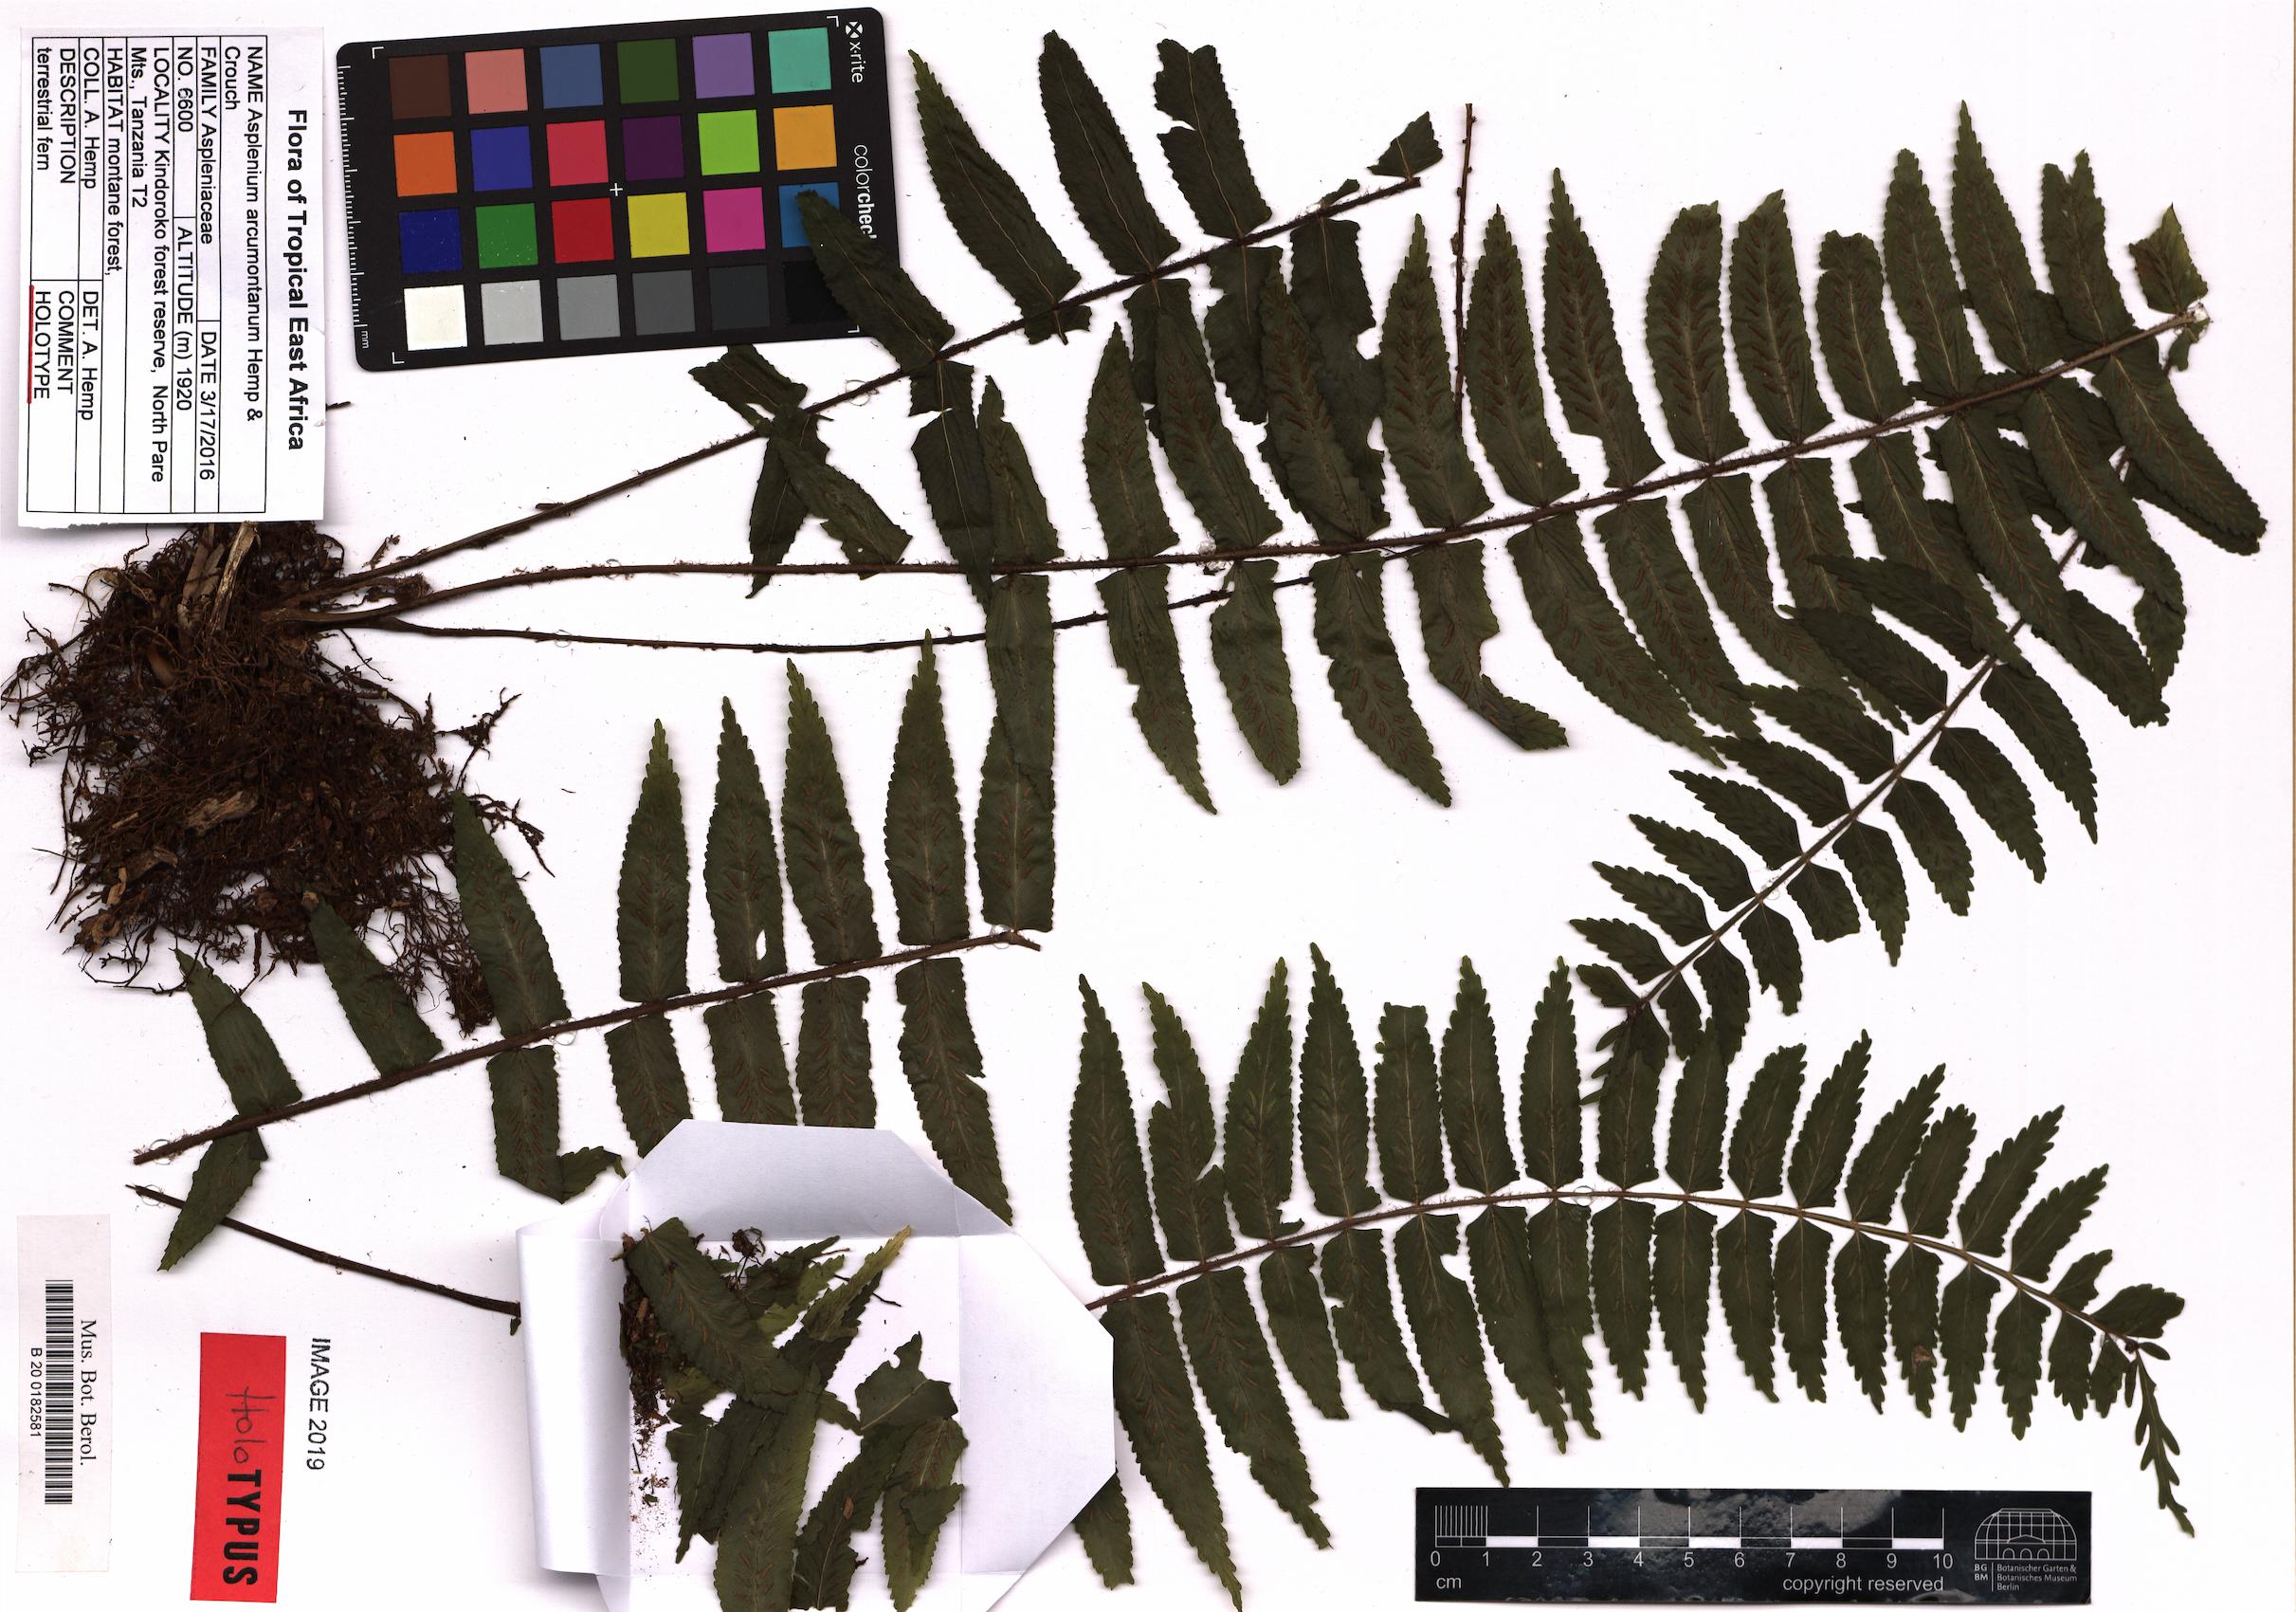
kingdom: Plantae
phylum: Tracheophyta
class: Polypodiopsida
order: Polypodiales
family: Aspleniaceae
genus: Asplenium
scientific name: Asplenium arcumontanum
